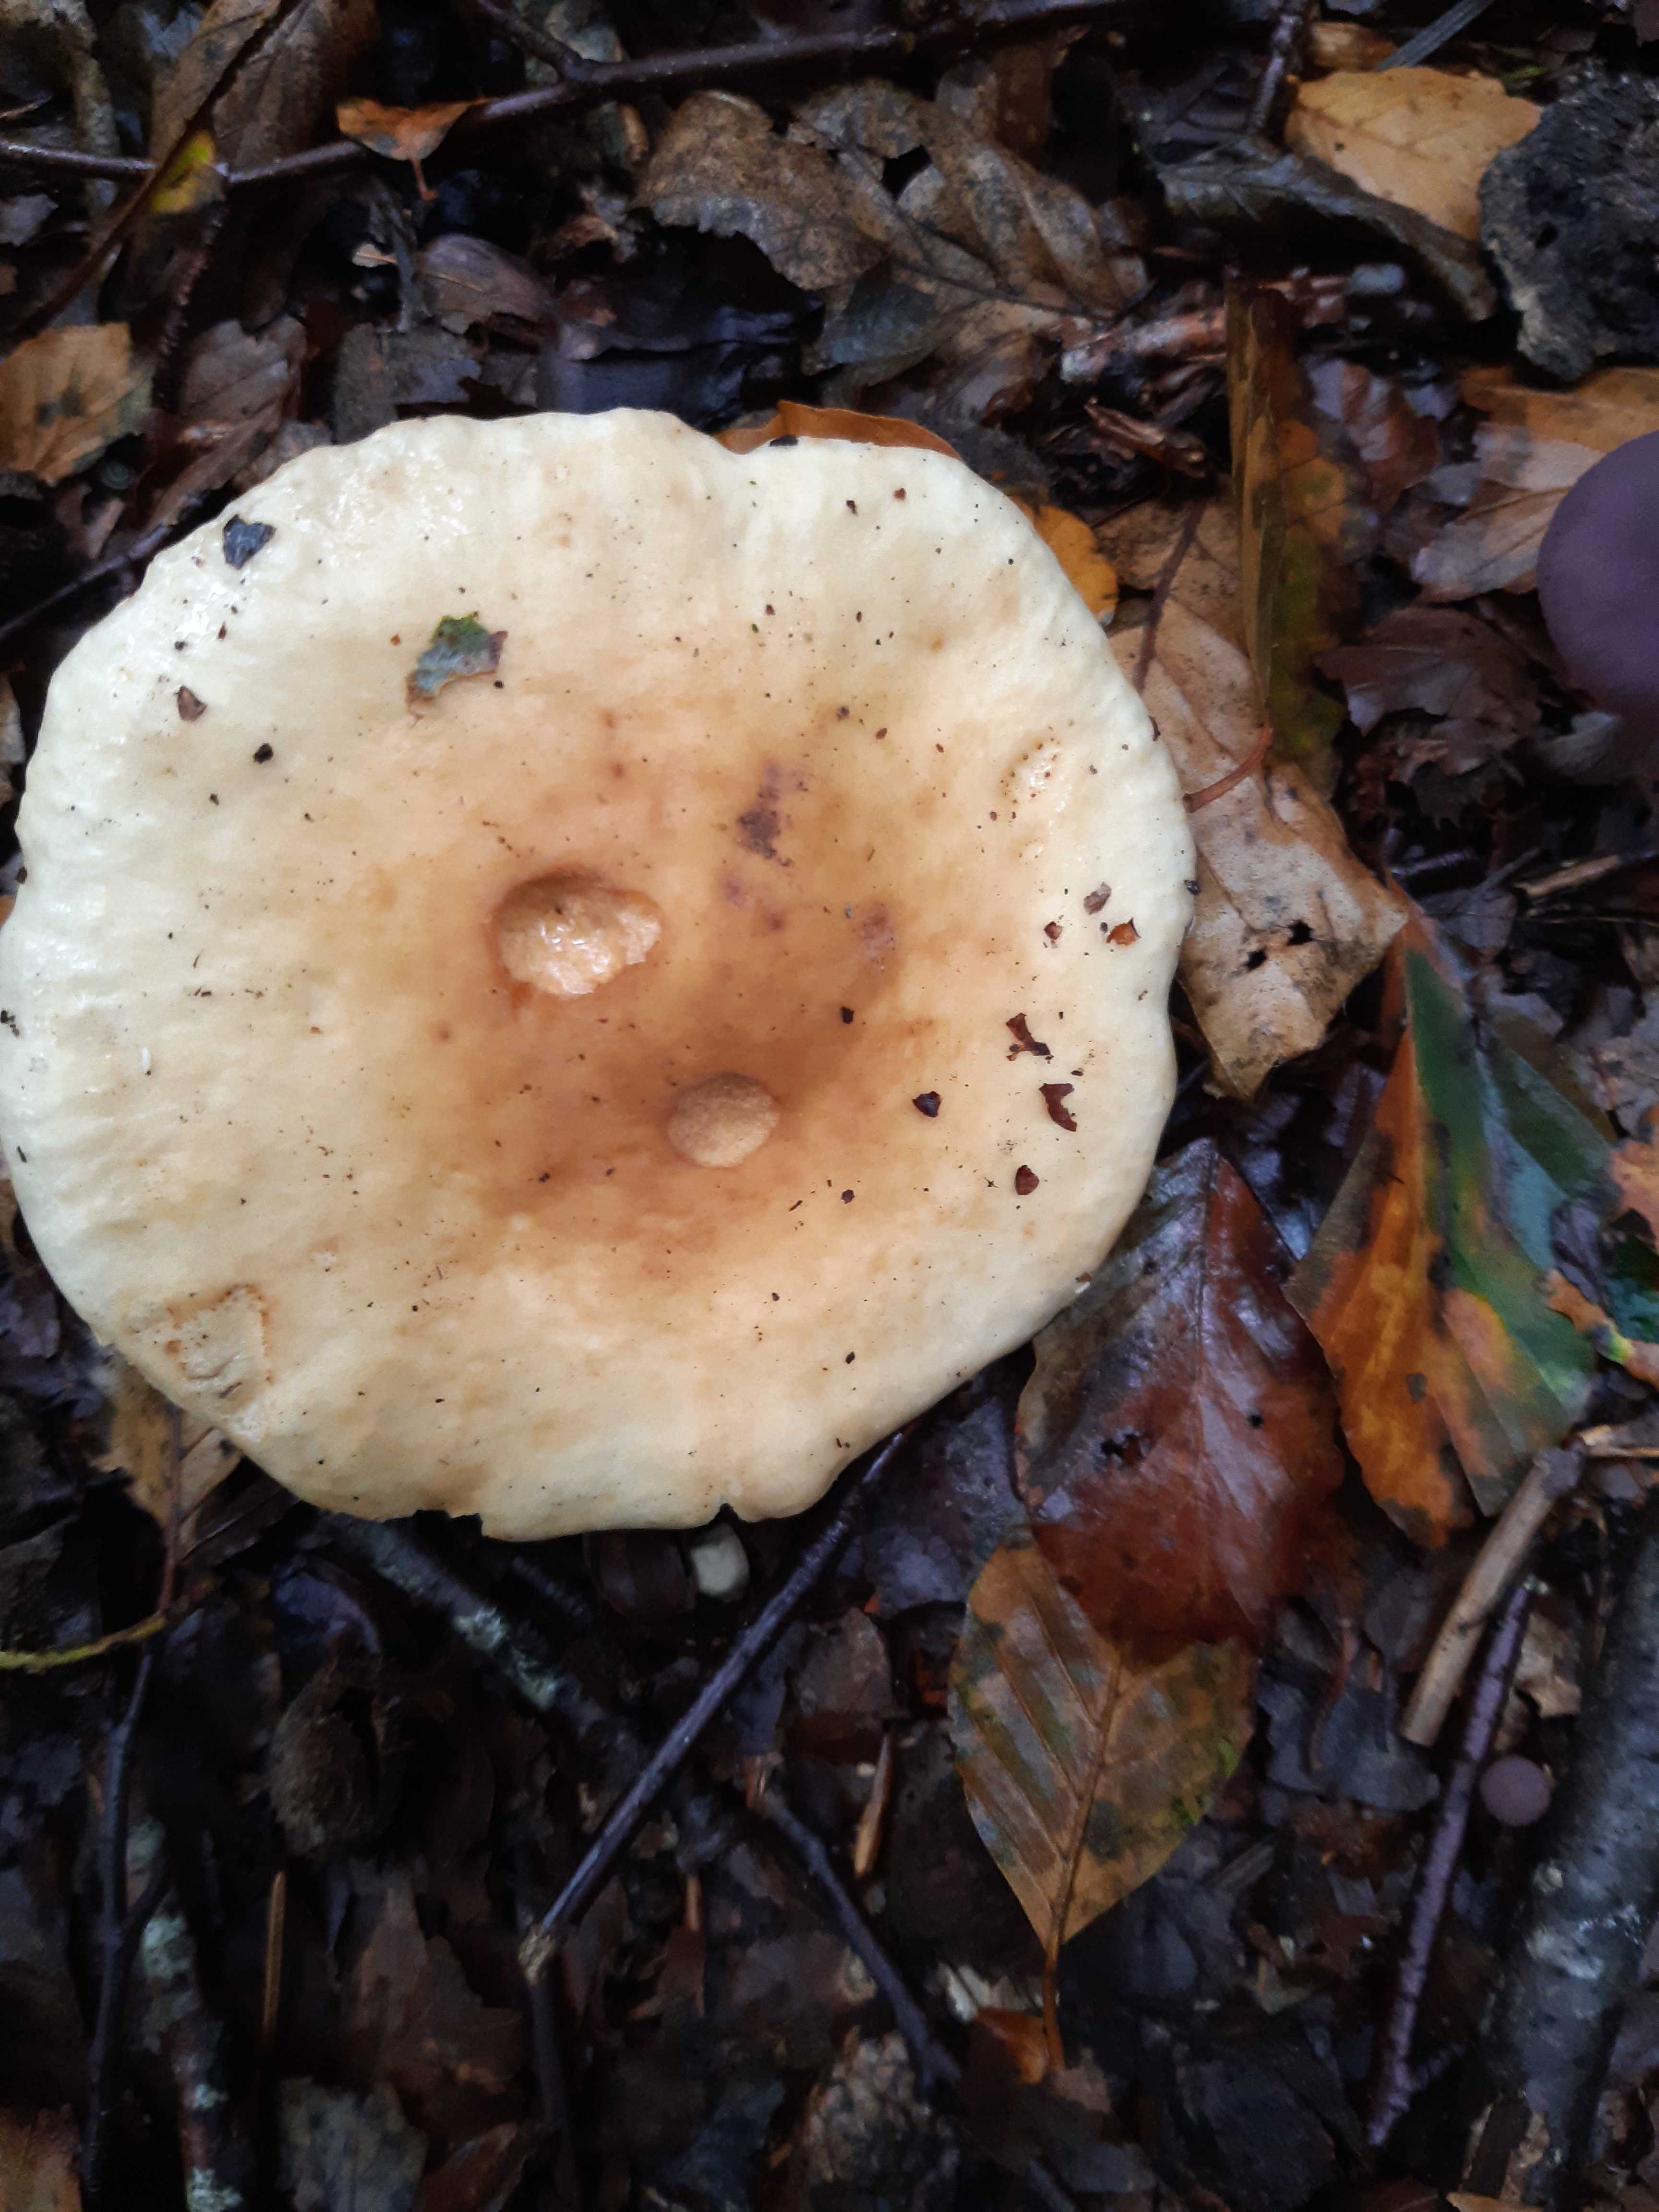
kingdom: Fungi
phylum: Basidiomycota
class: Agaricomycetes
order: Russulales
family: Russulaceae
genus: Russula
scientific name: Russula fellea
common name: galde-skørhat
